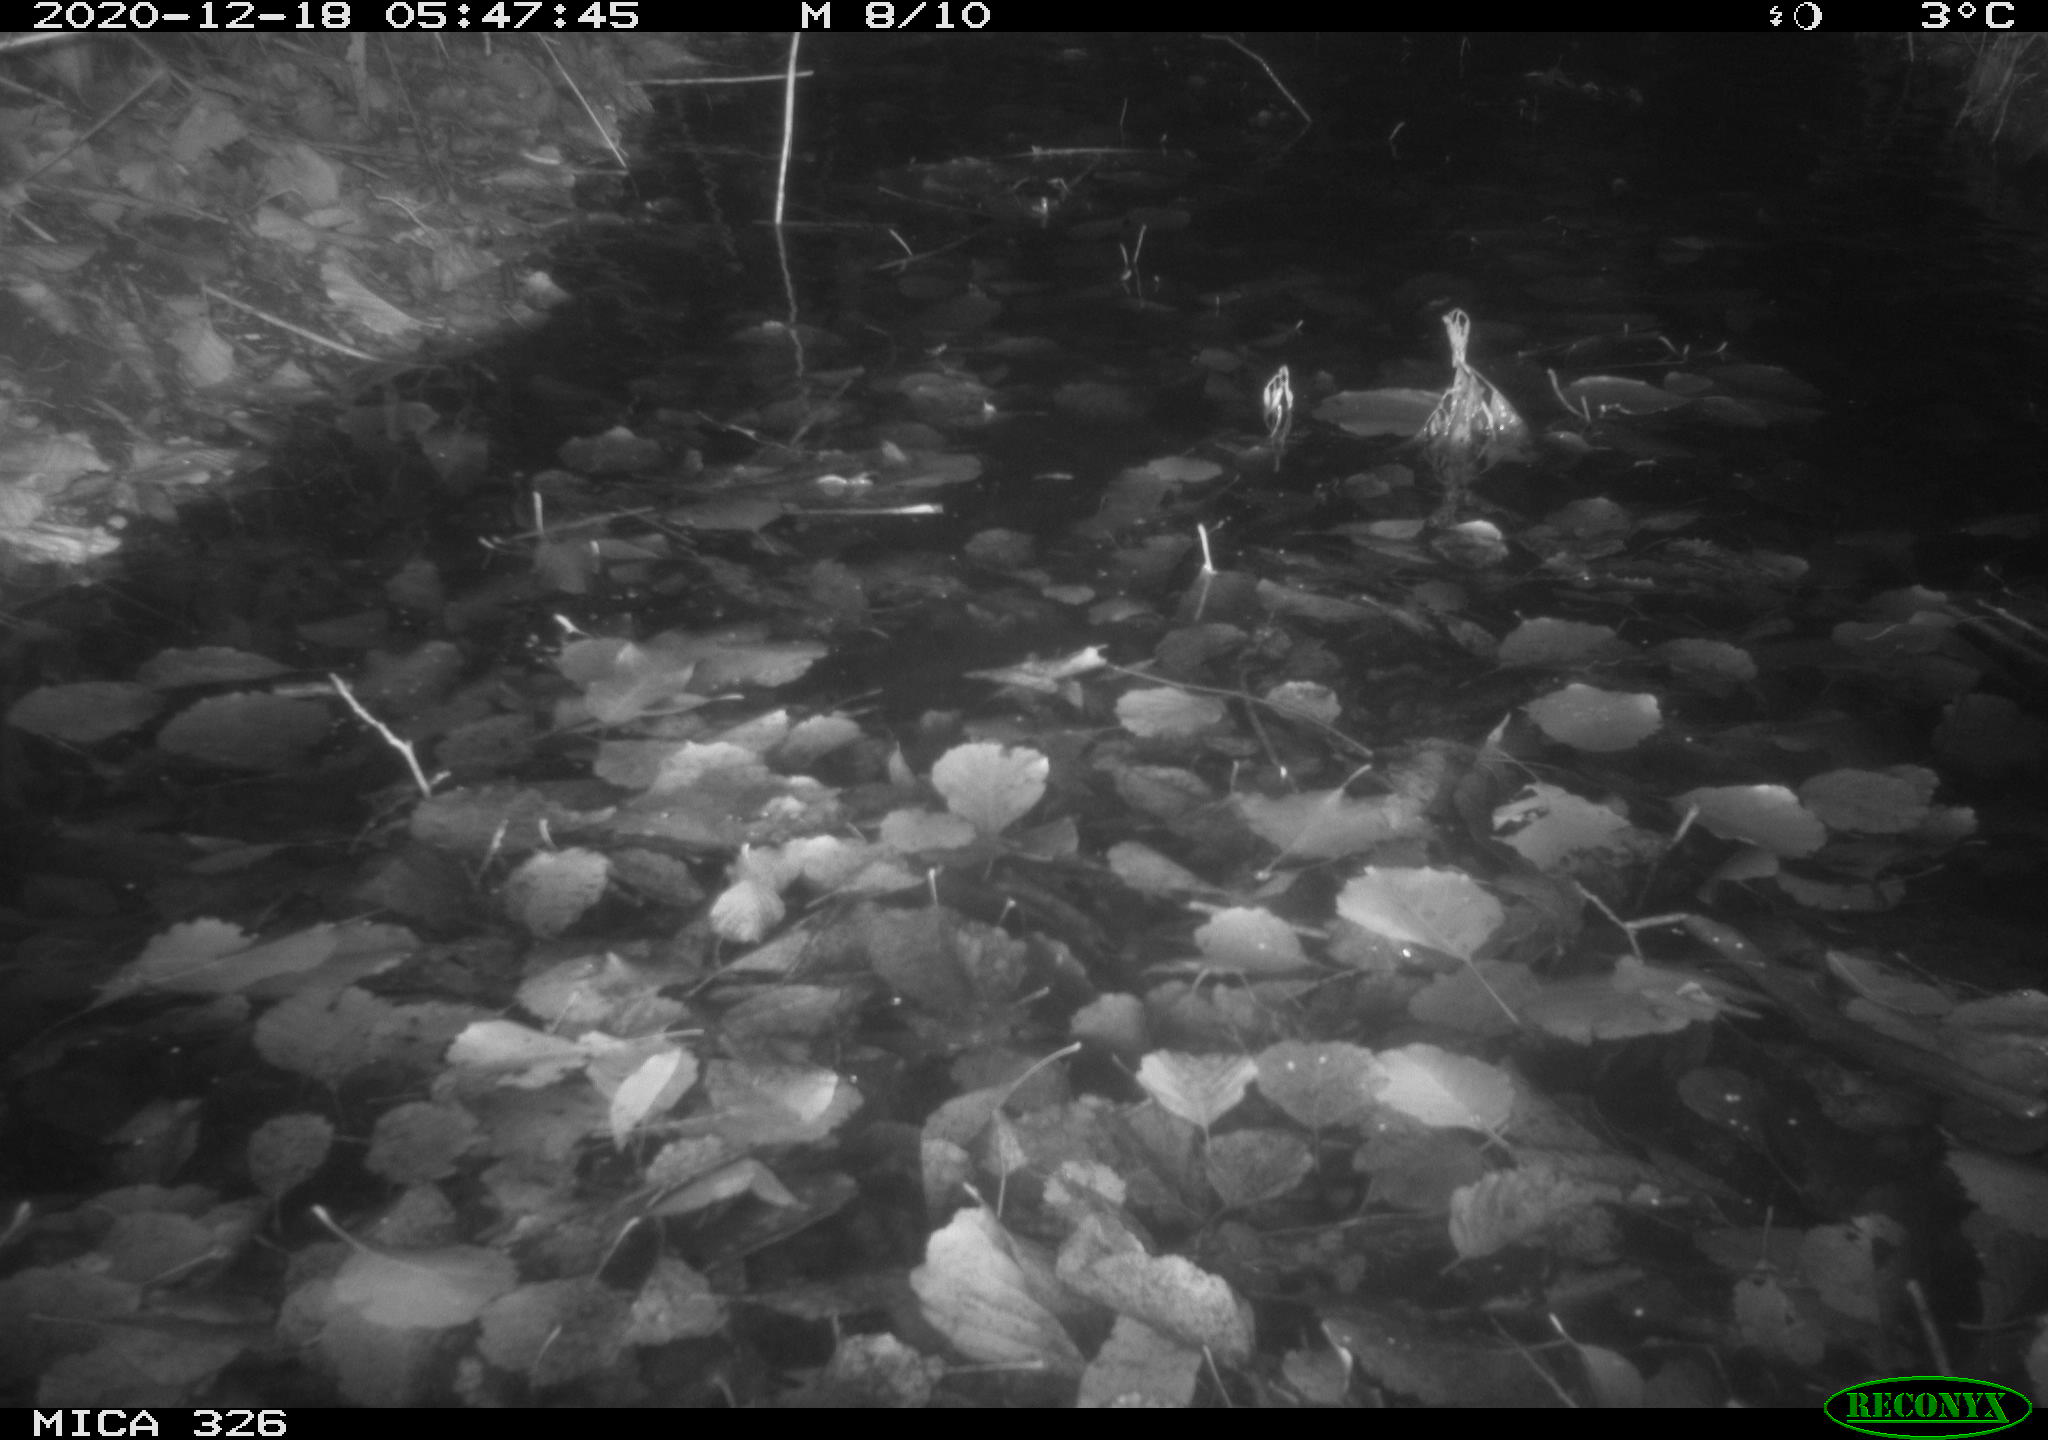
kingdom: Animalia
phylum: Chordata
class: Mammalia
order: Carnivora
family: Mustelidae
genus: Lutra
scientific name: Lutra lutra
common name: European otter
